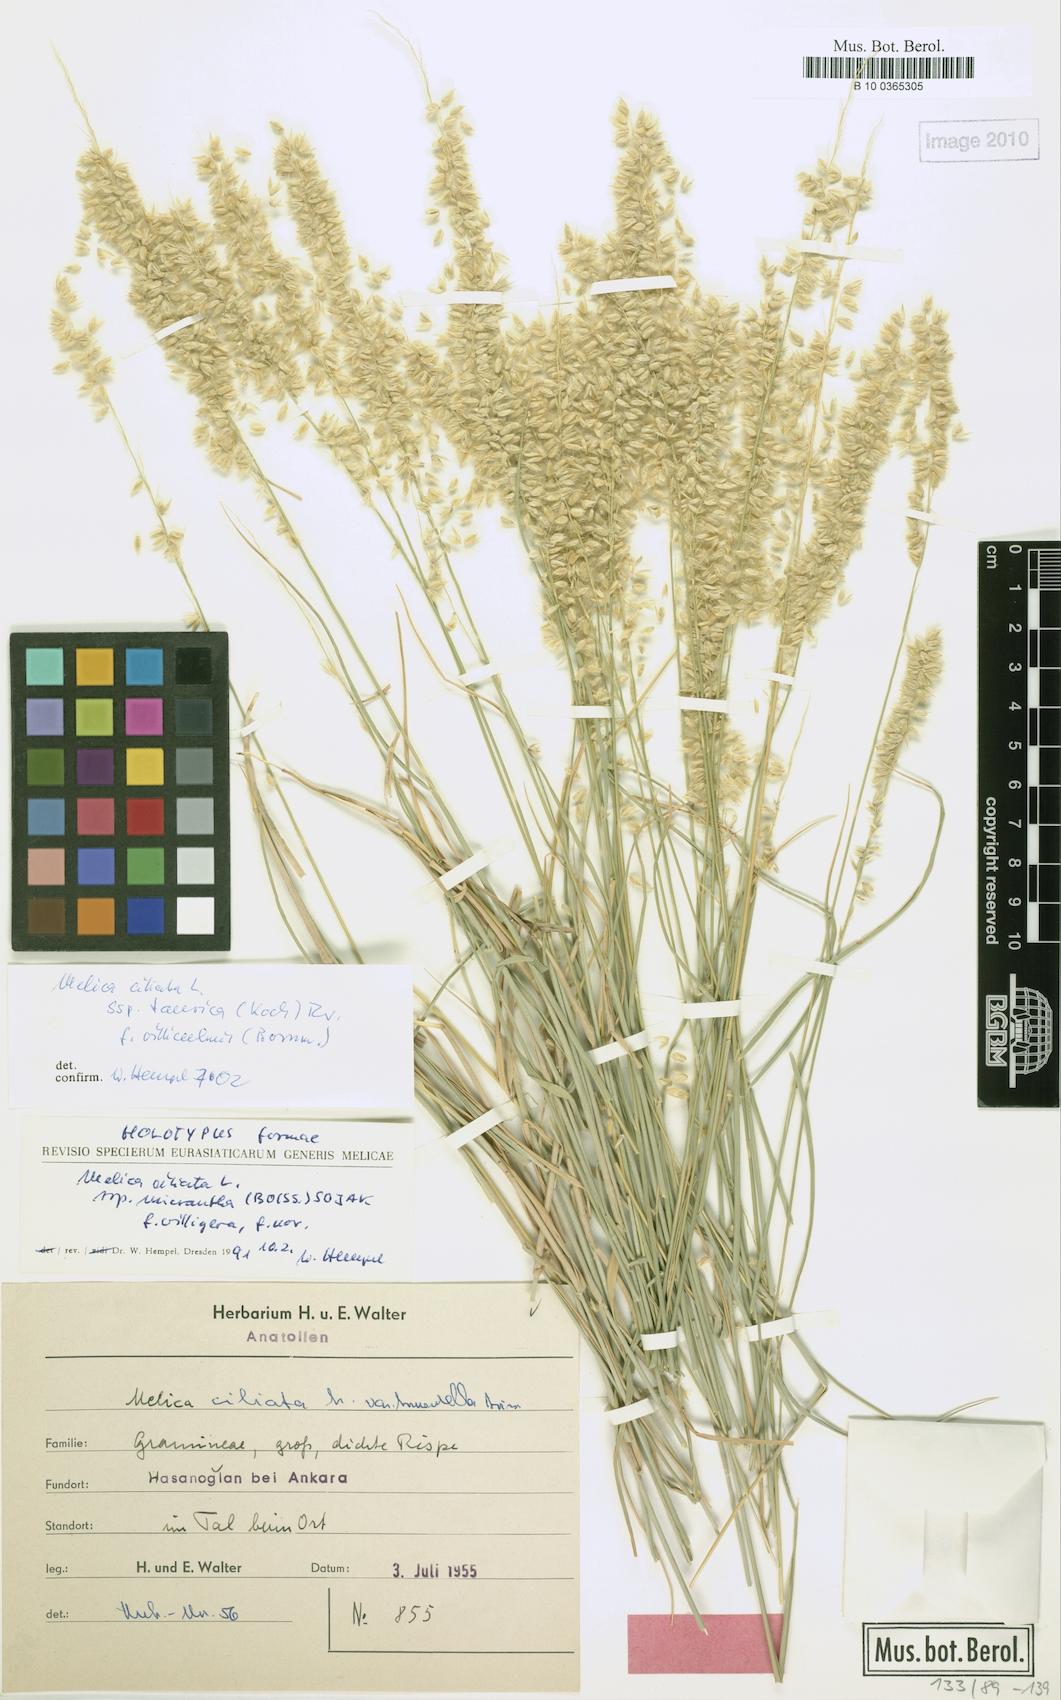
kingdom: Plantae
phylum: Tracheophyta
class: Liliopsida
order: Poales
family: Poaceae
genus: Melica
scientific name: Melica ciliata
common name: Hairy melicgrass
